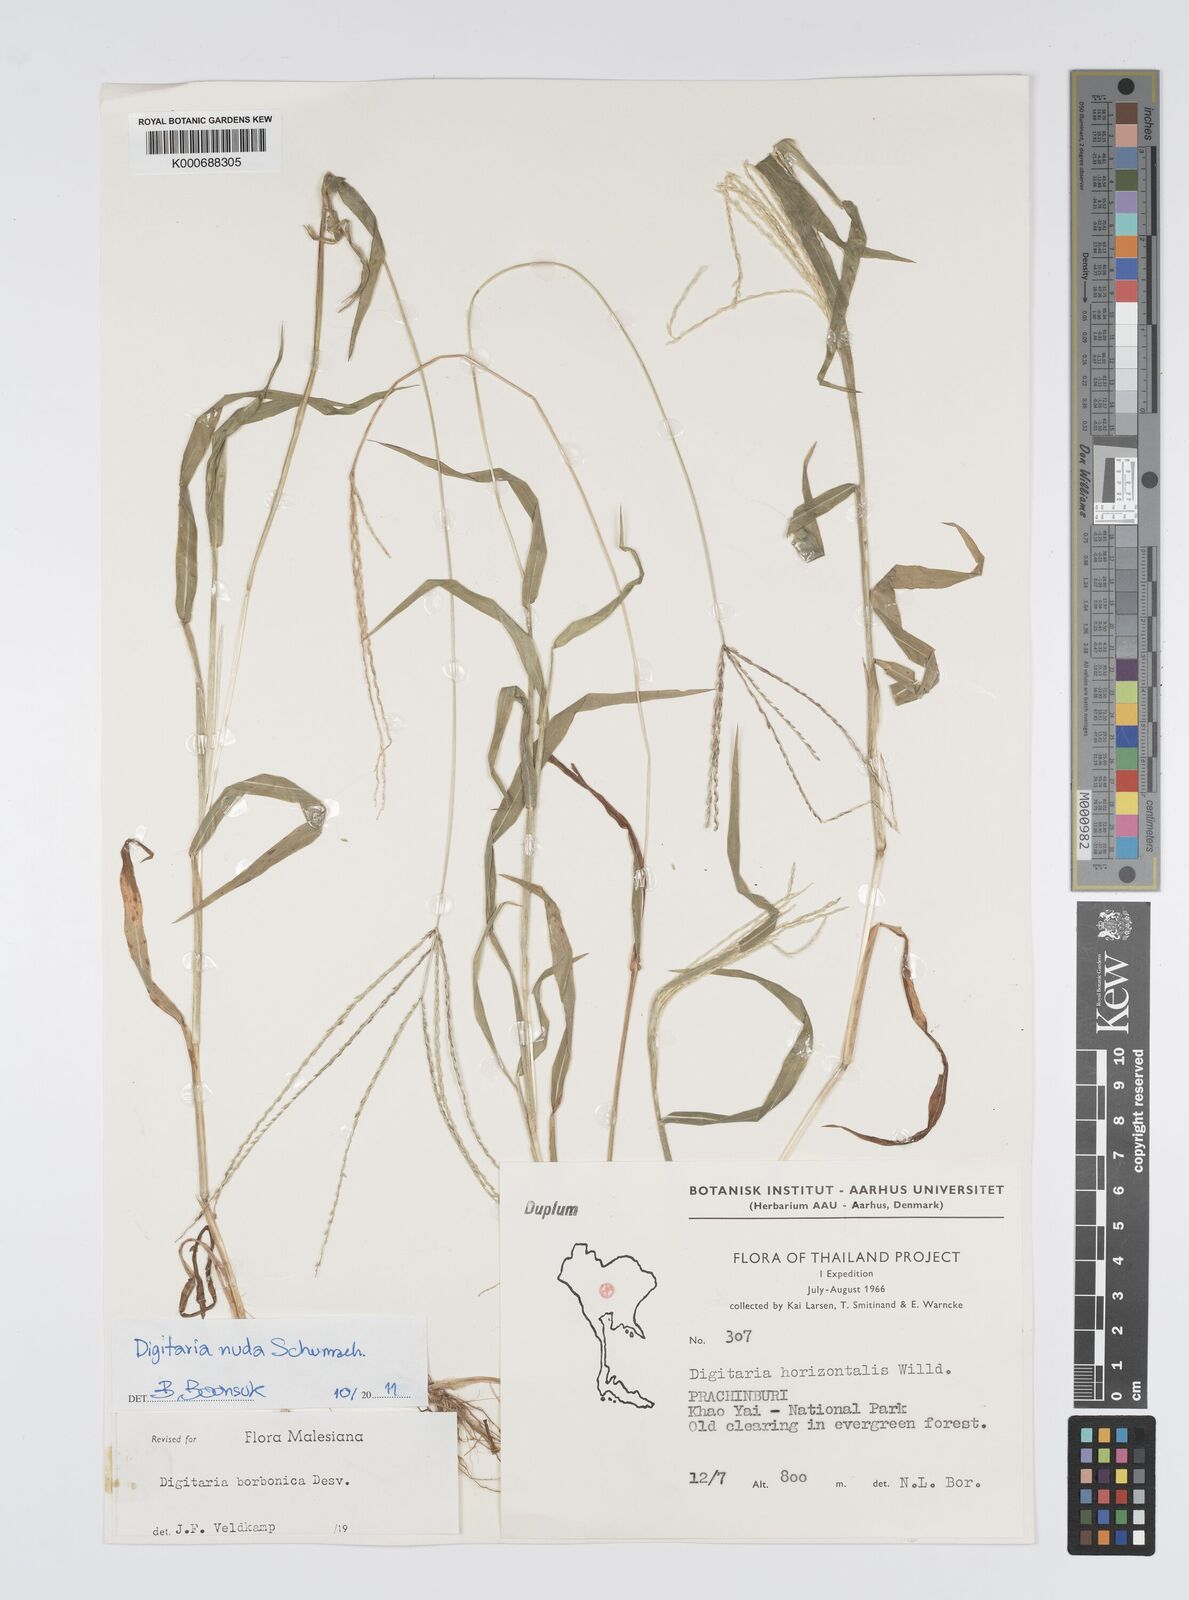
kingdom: Plantae
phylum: Tracheophyta
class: Liliopsida
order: Poales
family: Poaceae
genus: Digitaria
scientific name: Digitaria horizontalis
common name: Jamaican crabgrass
